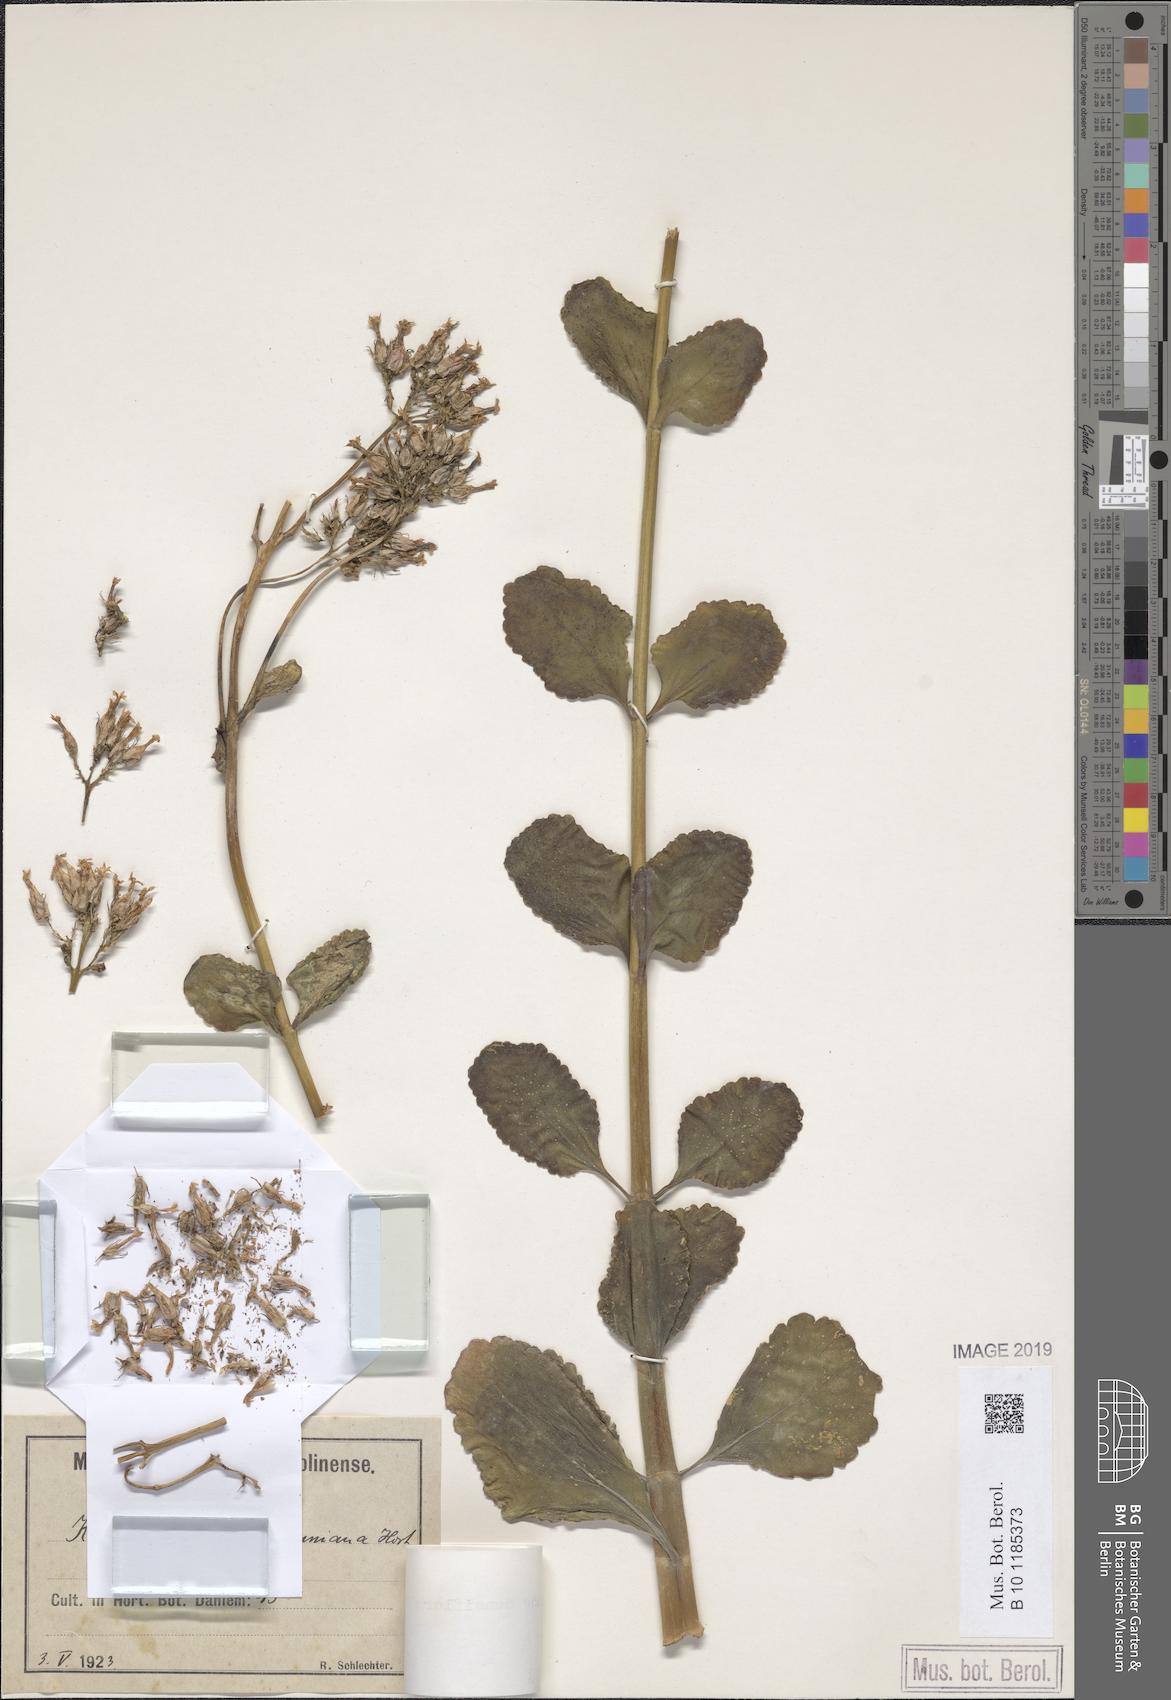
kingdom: Plantae
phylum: Tracheophyta
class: Magnoliopsida
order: Saxifragales
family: Crassulaceae
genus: Kalanchoe
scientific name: Kalanchoe densiflora
